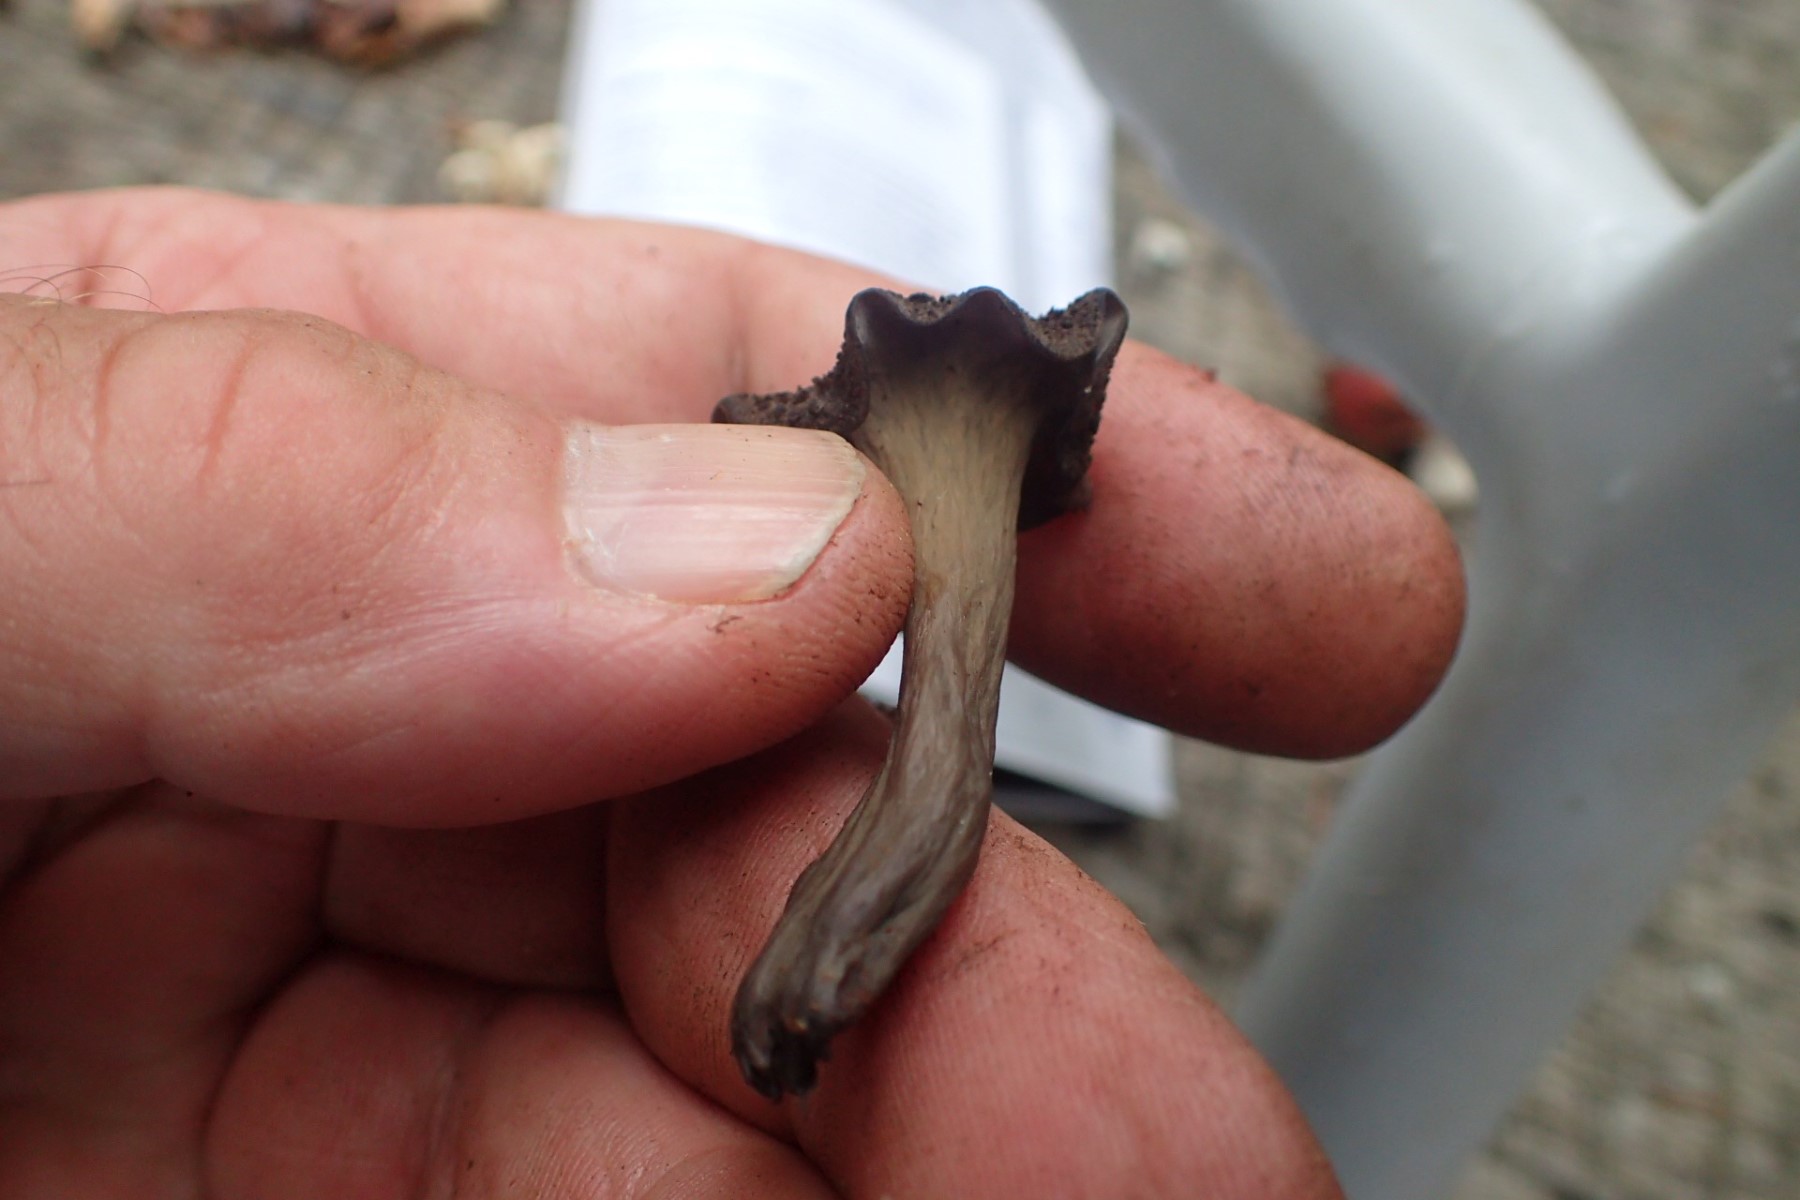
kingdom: Fungi
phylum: Basidiomycota
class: Agaricomycetes
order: Cantharellales
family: Hydnaceae
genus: Craterellus
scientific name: Craterellus cornucopioides
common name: trompetsvamp
